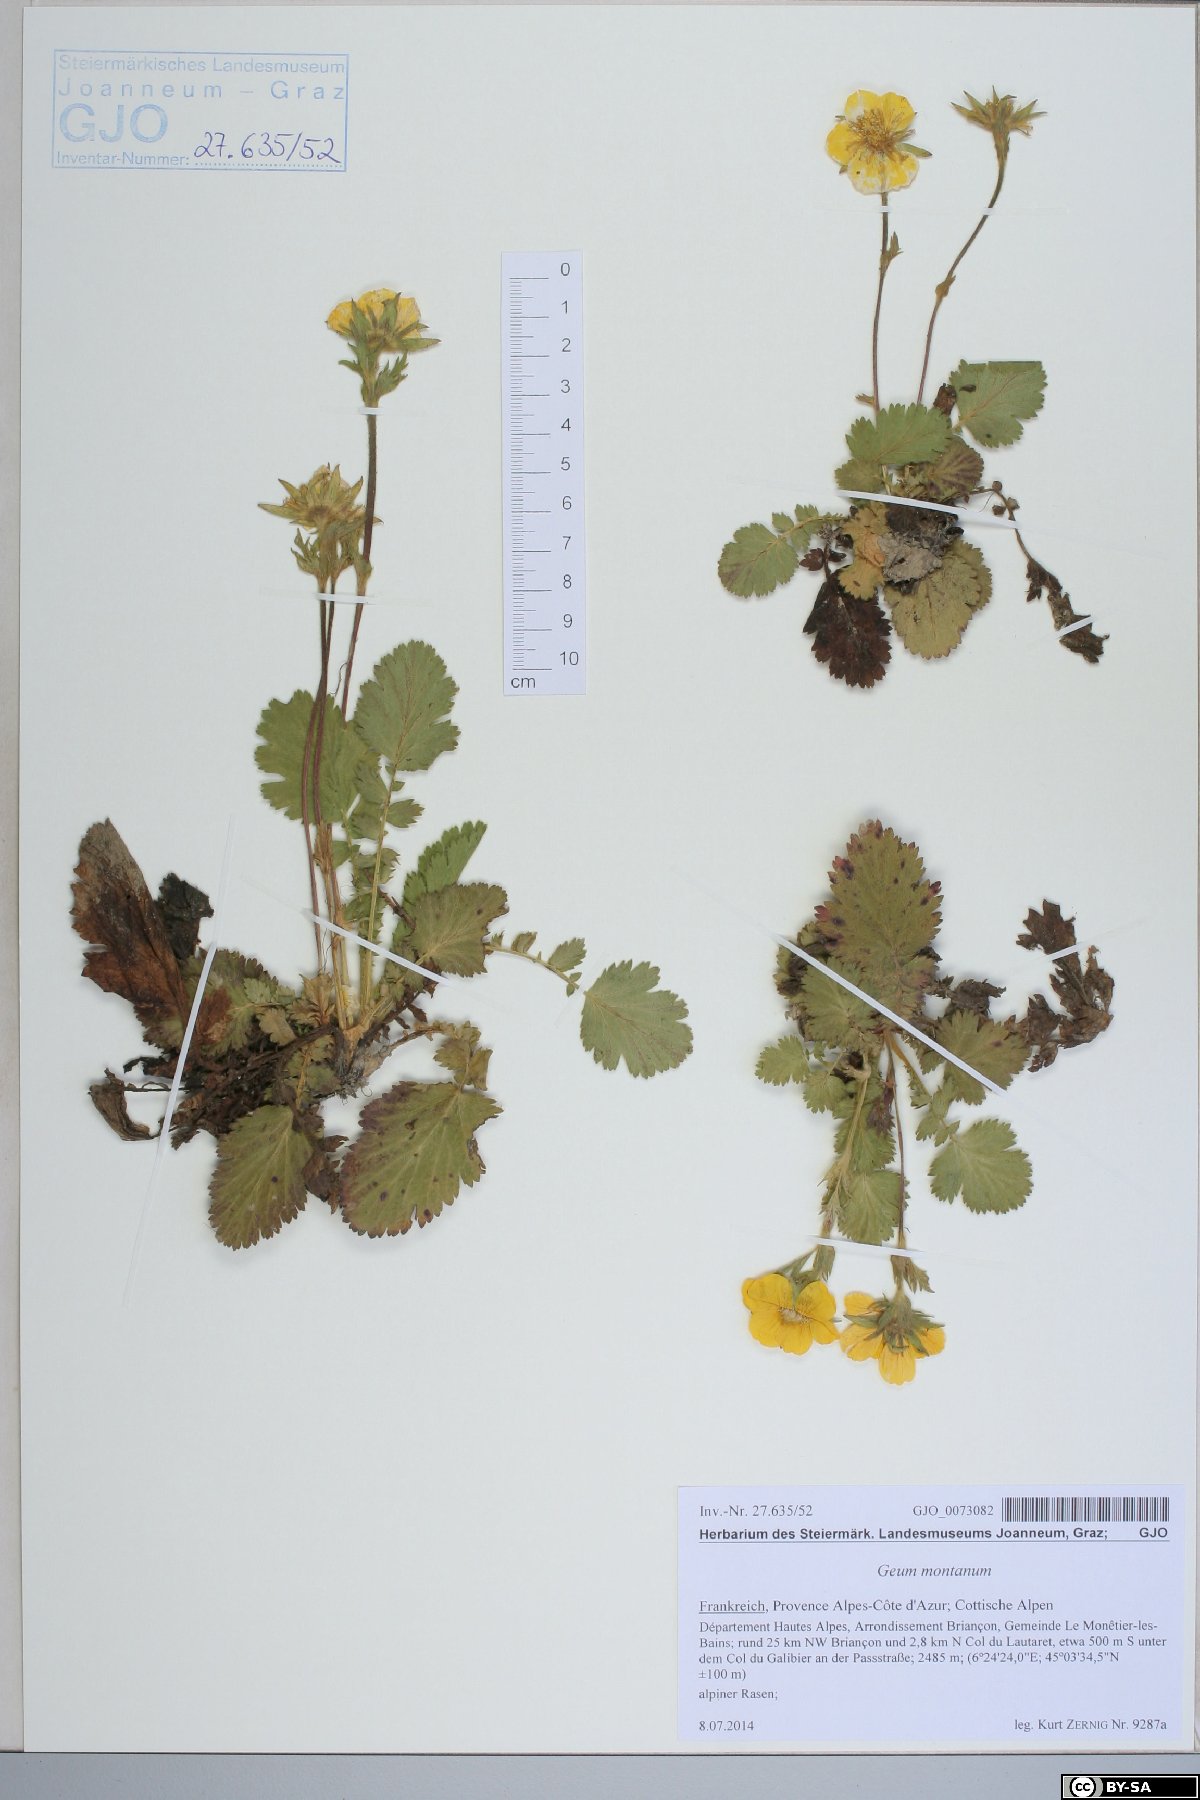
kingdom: Plantae
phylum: Tracheophyta
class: Magnoliopsida
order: Rosales
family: Rosaceae
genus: Geum
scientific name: Geum montanum
